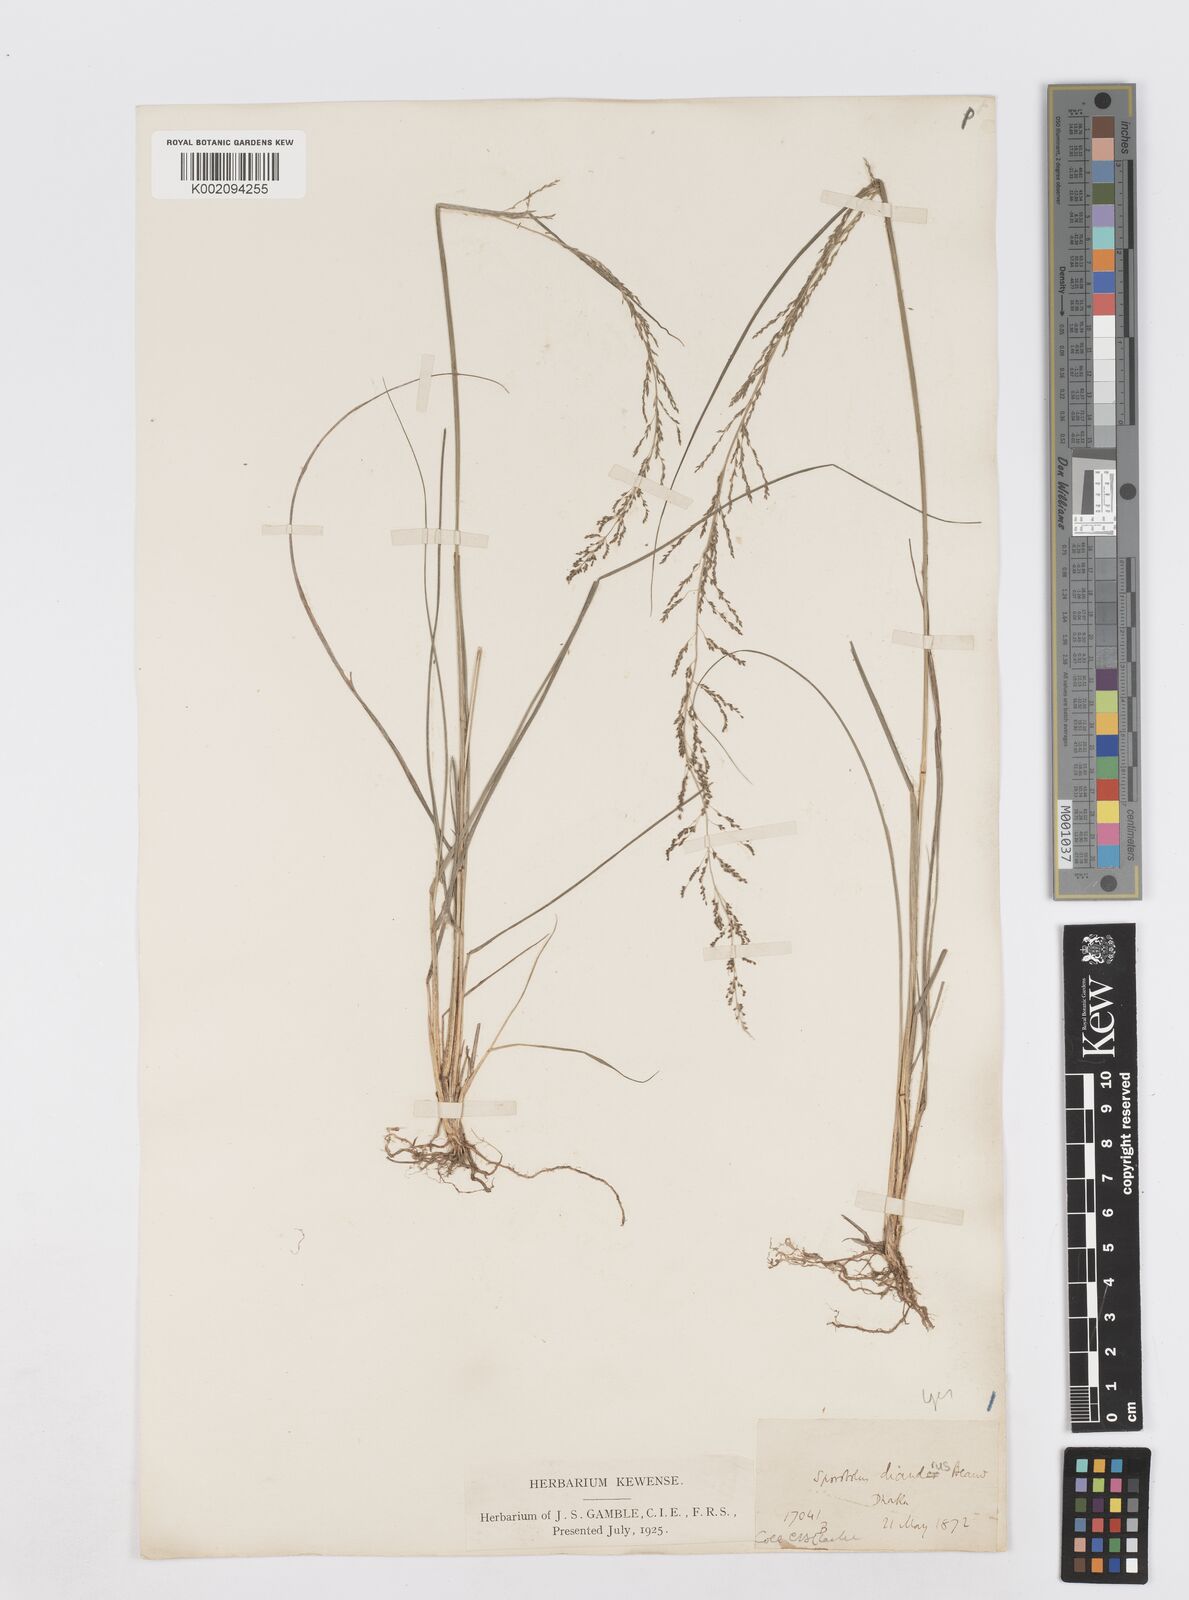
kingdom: Plantae
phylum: Tracheophyta
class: Liliopsida
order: Poales
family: Poaceae
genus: Sporobolus
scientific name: Sporobolus diandrus
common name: Tussock dropseed
